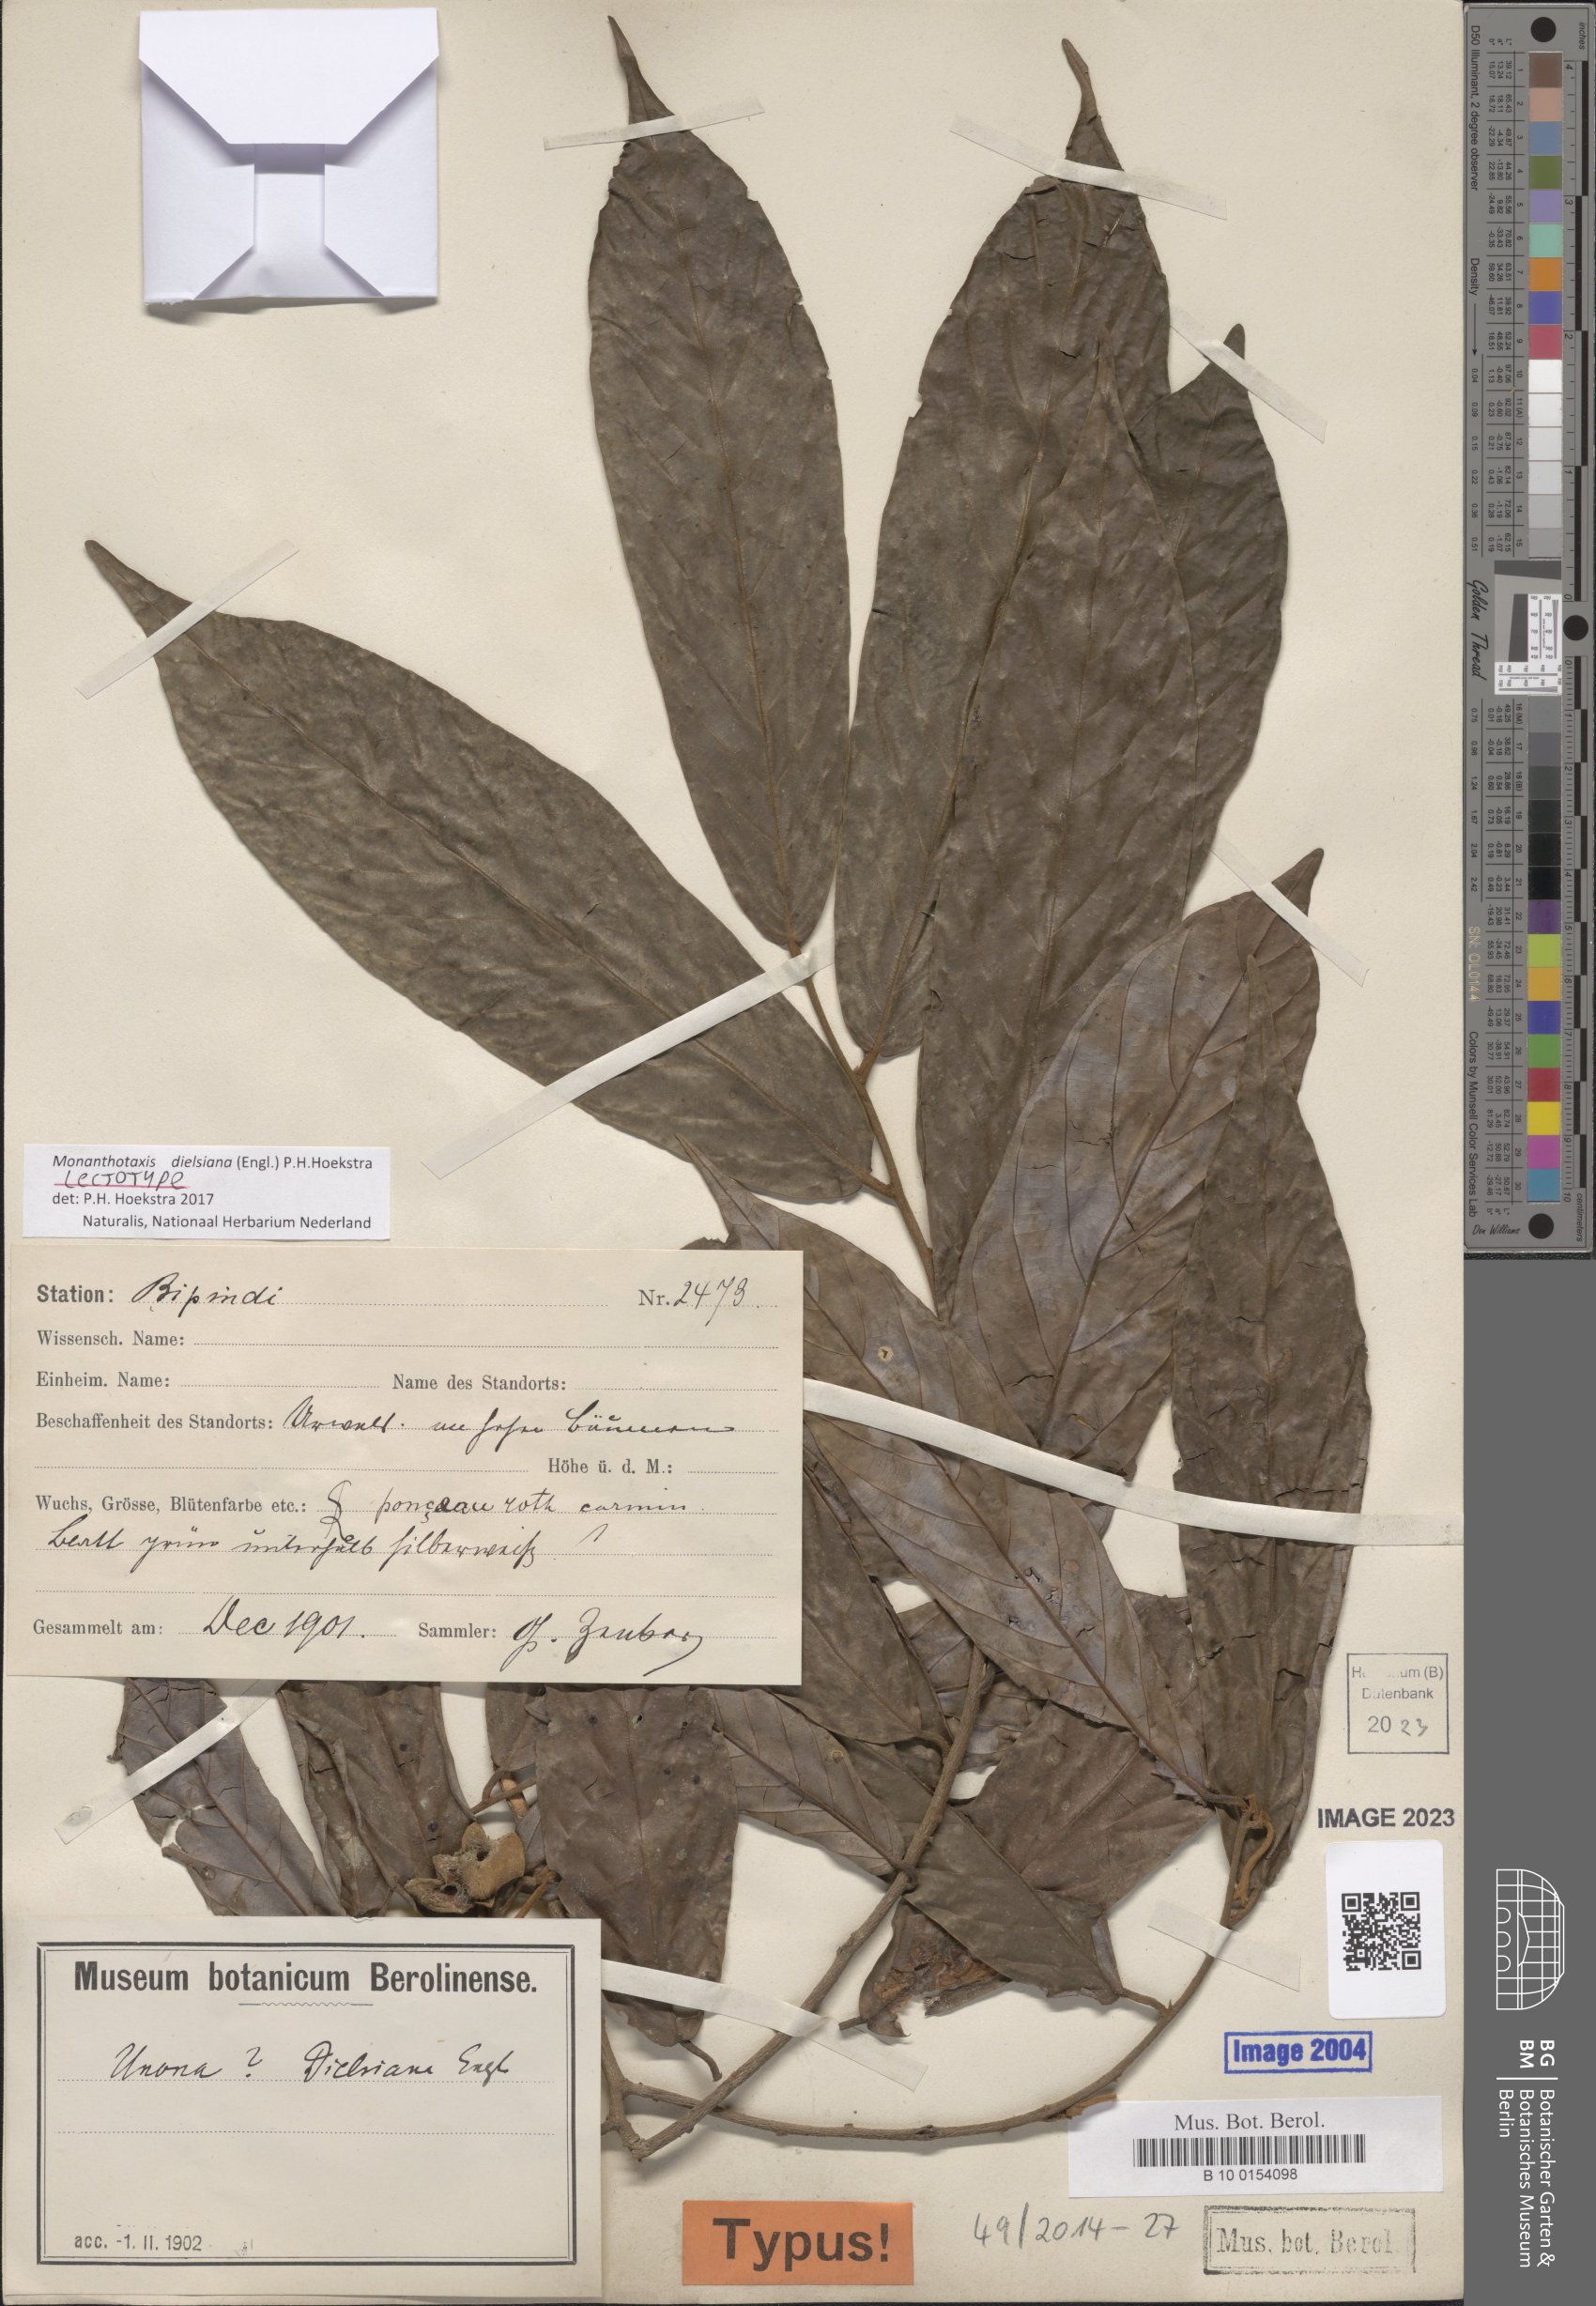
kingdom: Plantae
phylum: Tracheophyta
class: Magnoliopsida
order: Magnoliales
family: Annonaceae
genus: Friesodielsia
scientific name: Friesodielsia dielsiana
